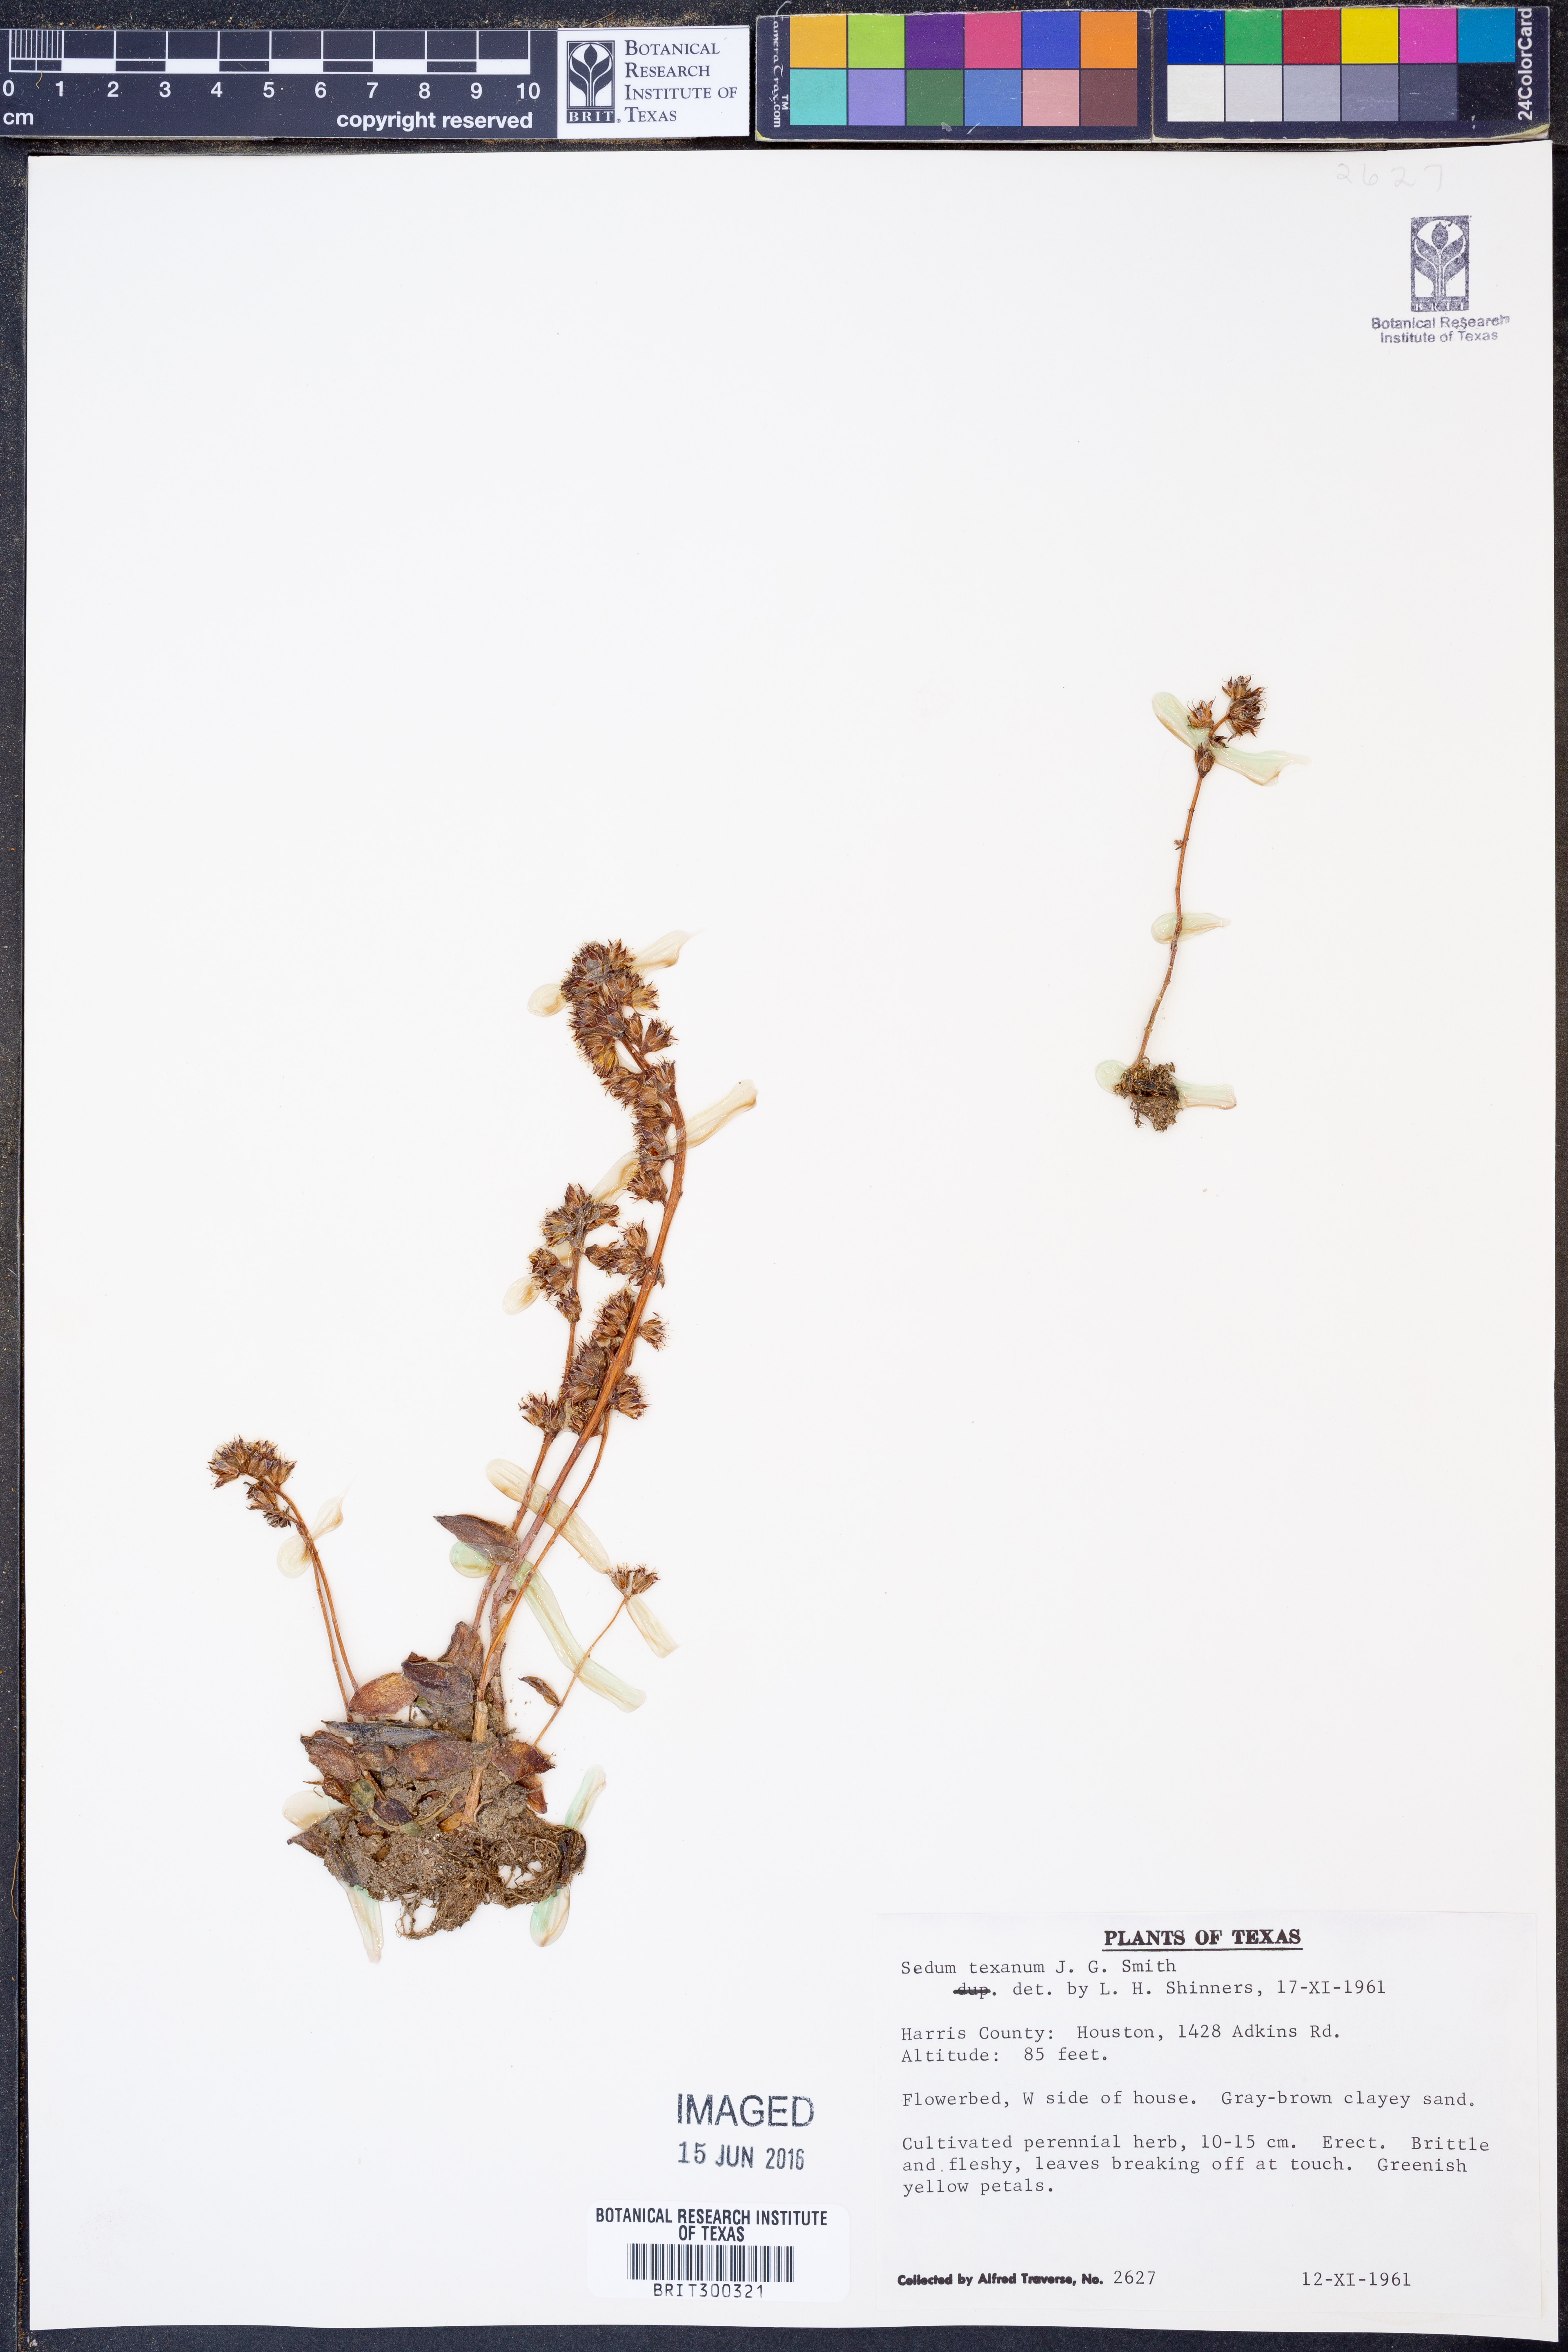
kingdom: Plantae
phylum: Tracheophyta
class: Magnoliopsida
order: Saxifragales
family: Crassulaceae
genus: Lenophyllum
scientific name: Lenophyllum texanum
